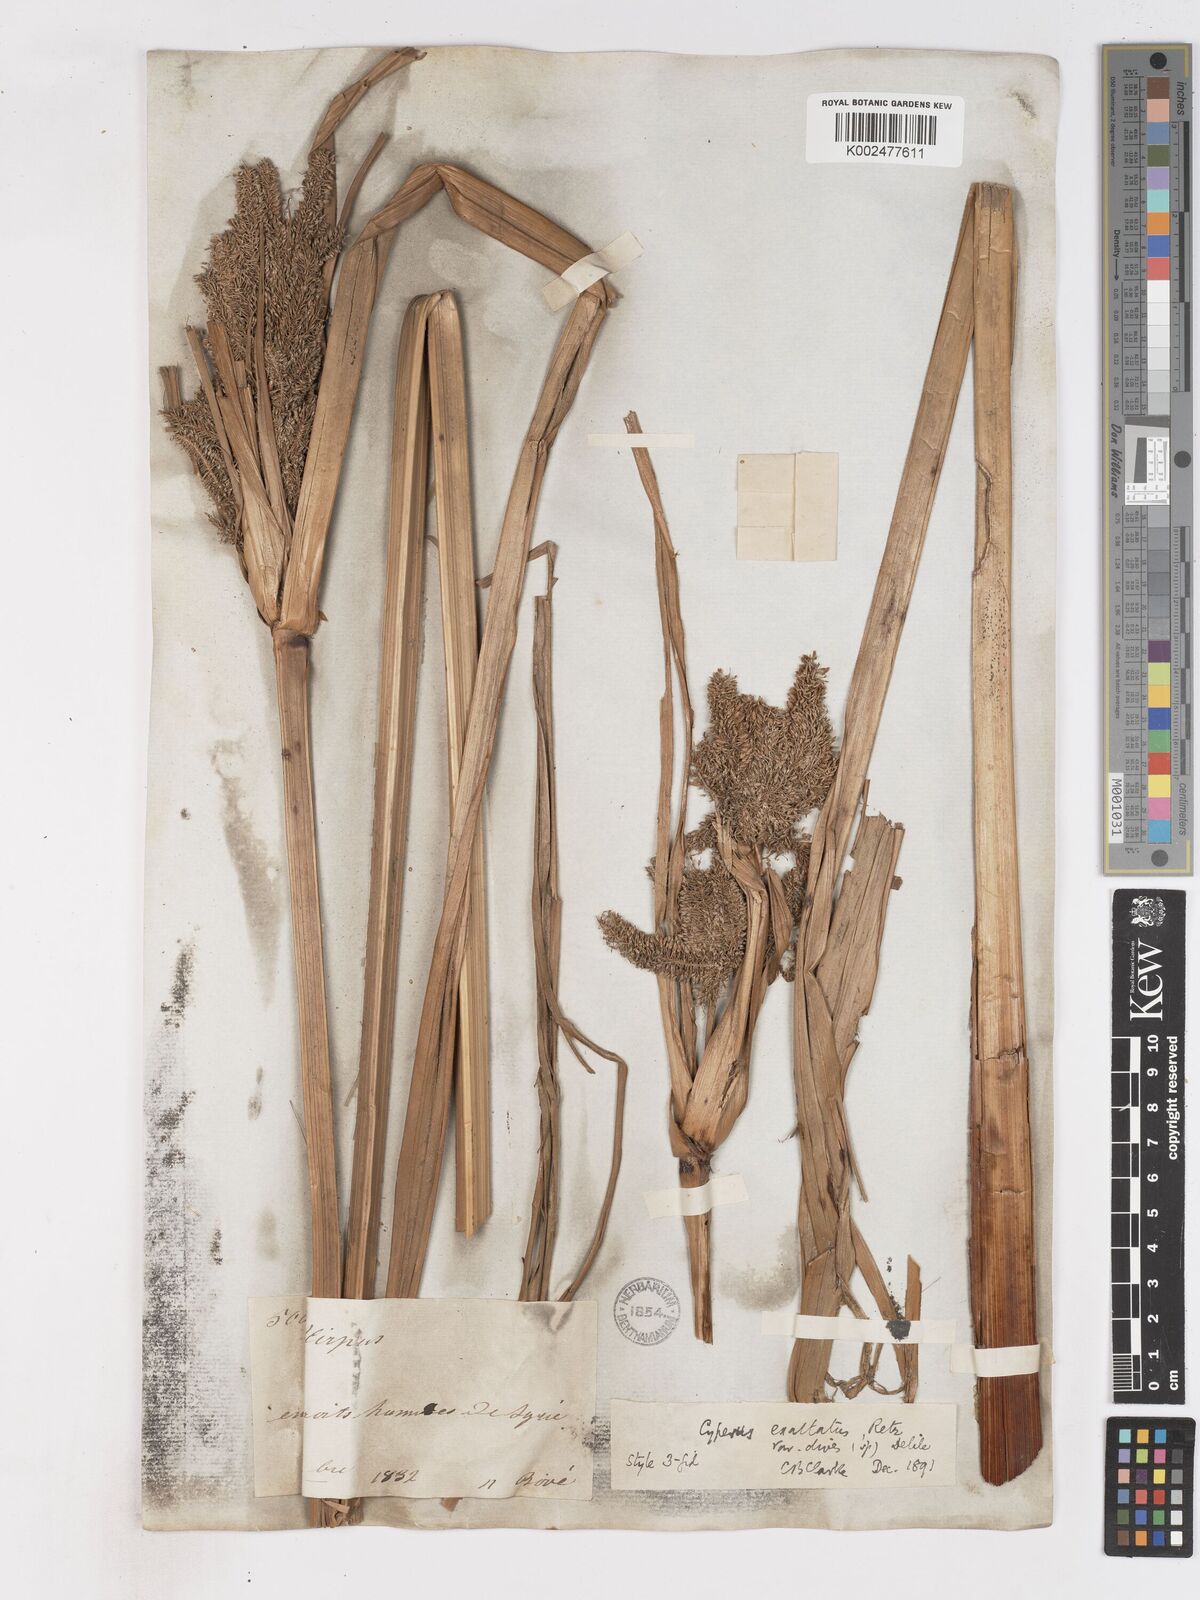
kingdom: Plantae
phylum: Tracheophyta
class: Liliopsida
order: Poales
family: Cyperaceae
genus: Cyperus
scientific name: Cyperus dives
